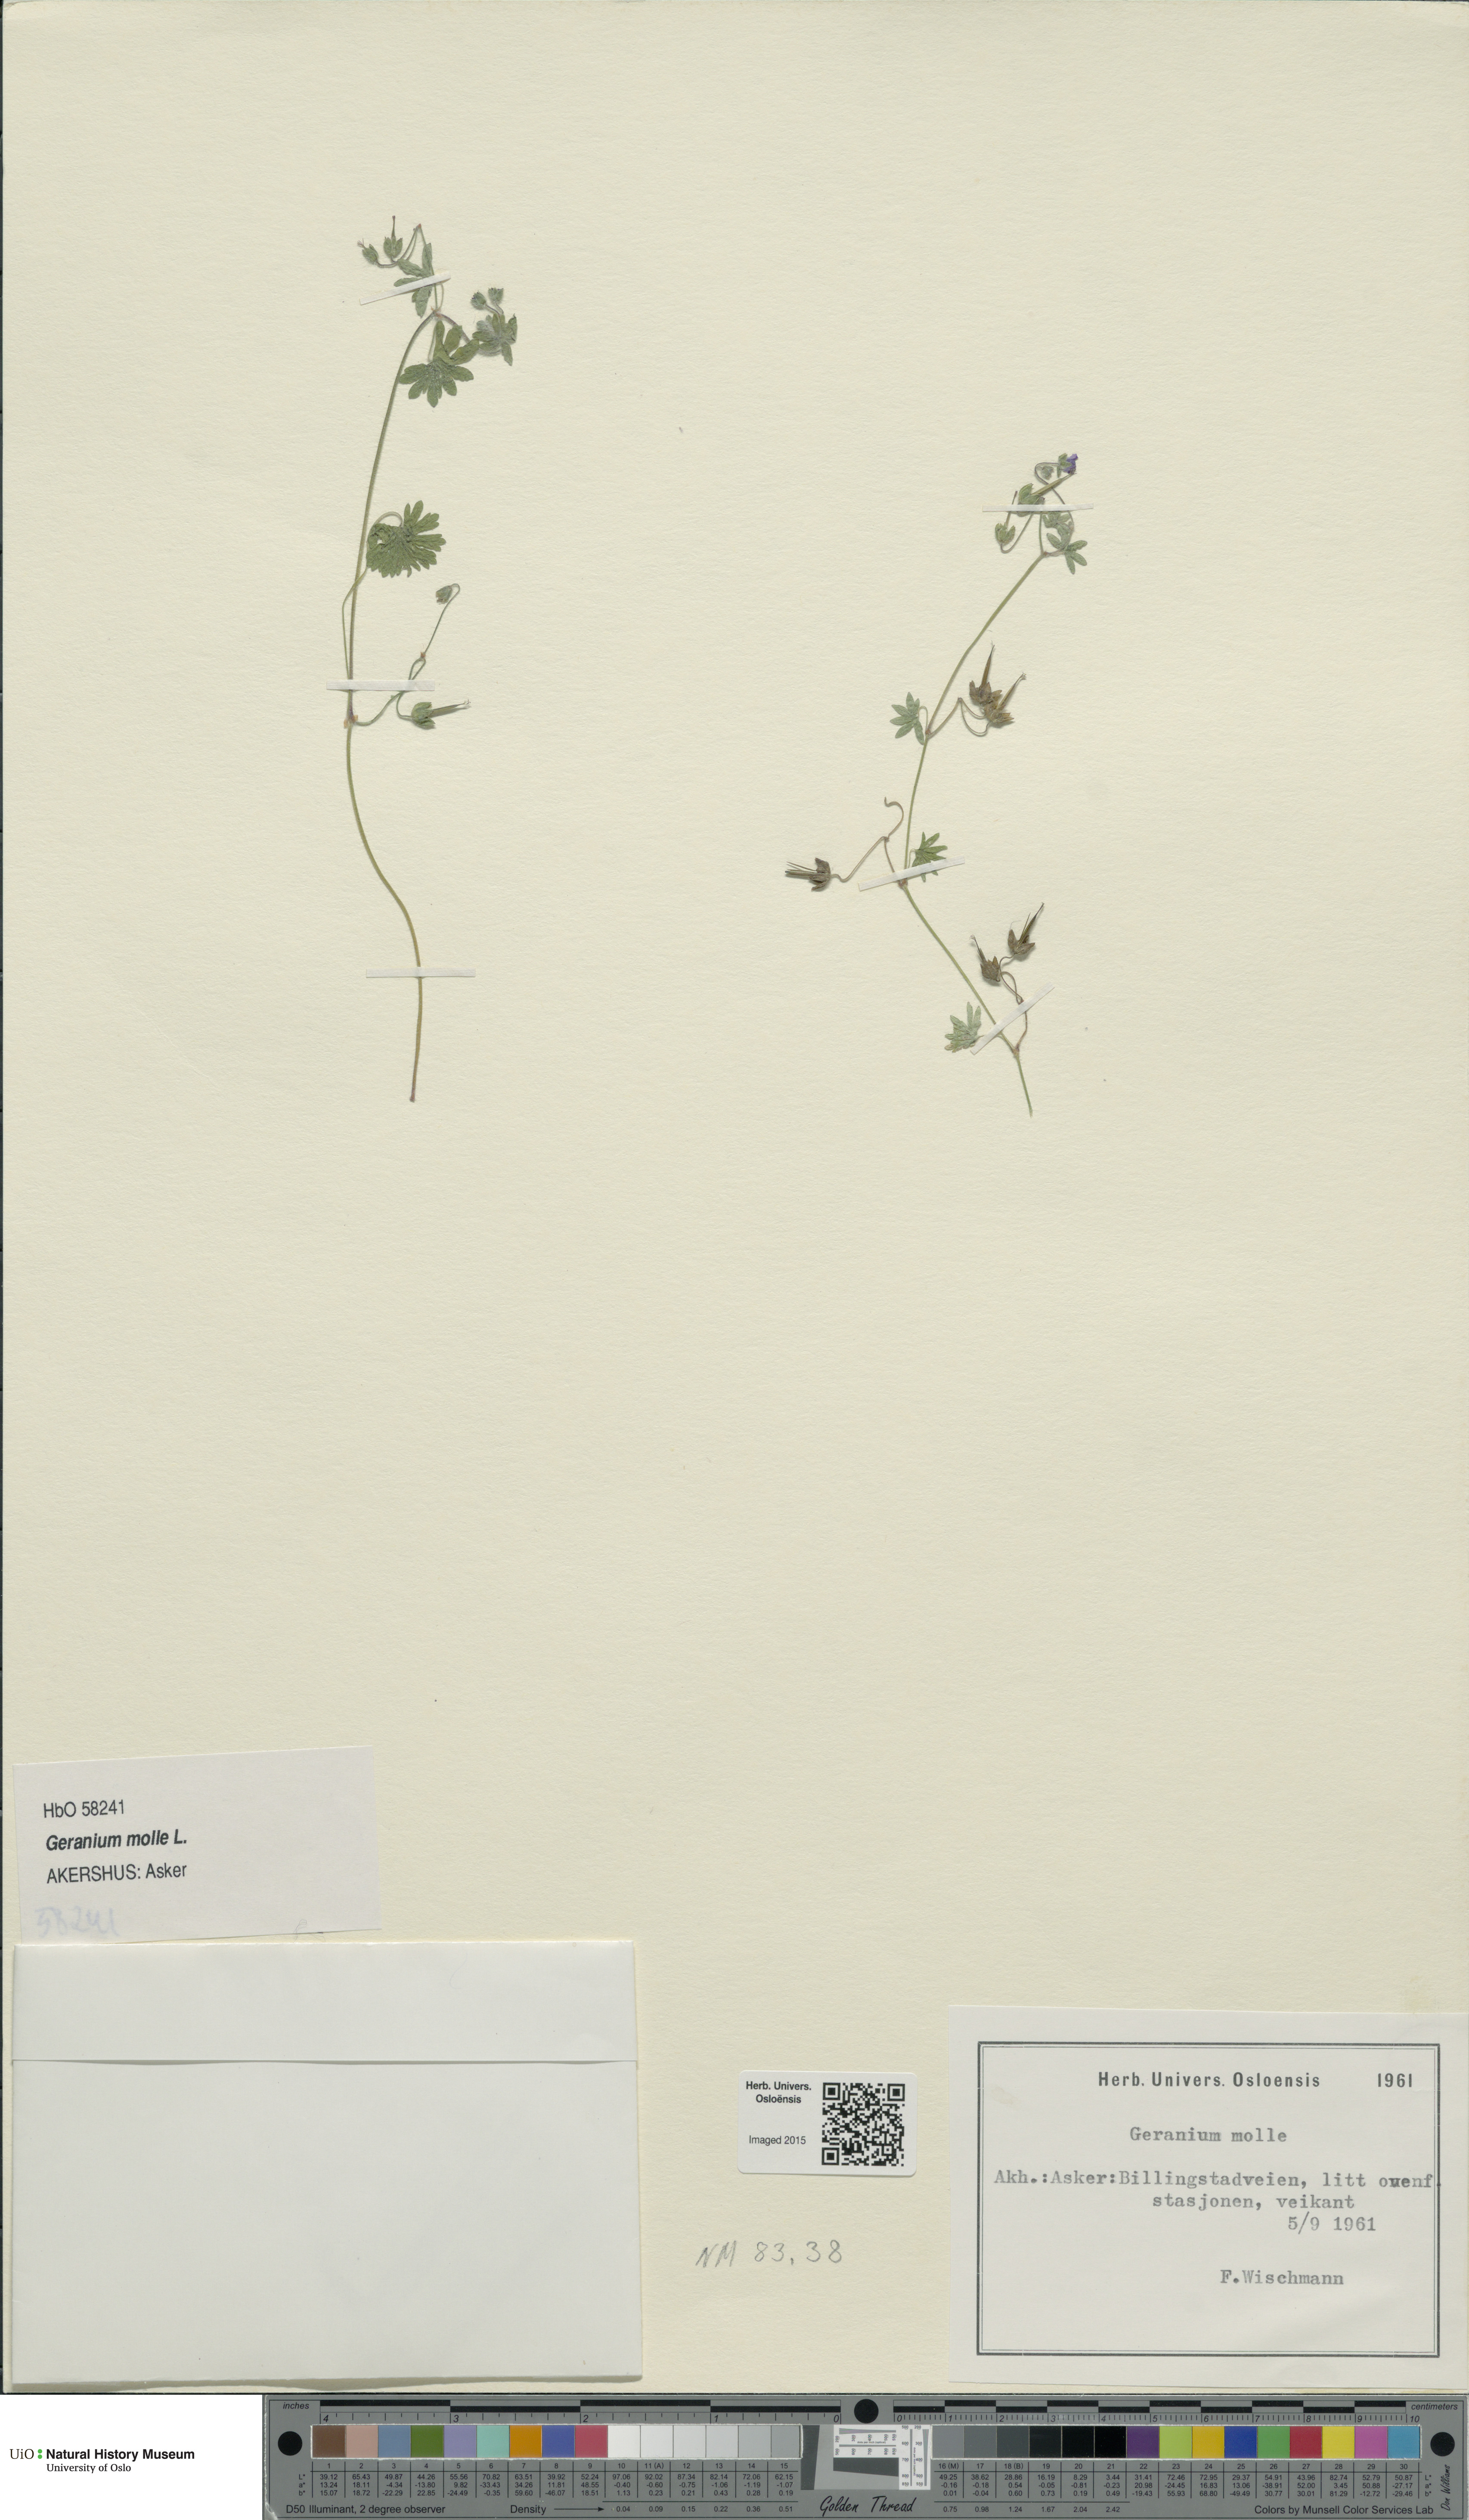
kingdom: Plantae
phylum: Tracheophyta
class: Magnoliopsida
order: Geraniales
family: Geraniaceae
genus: Geranium
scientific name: Geranium molle
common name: Dove's-foot crane's-bill
